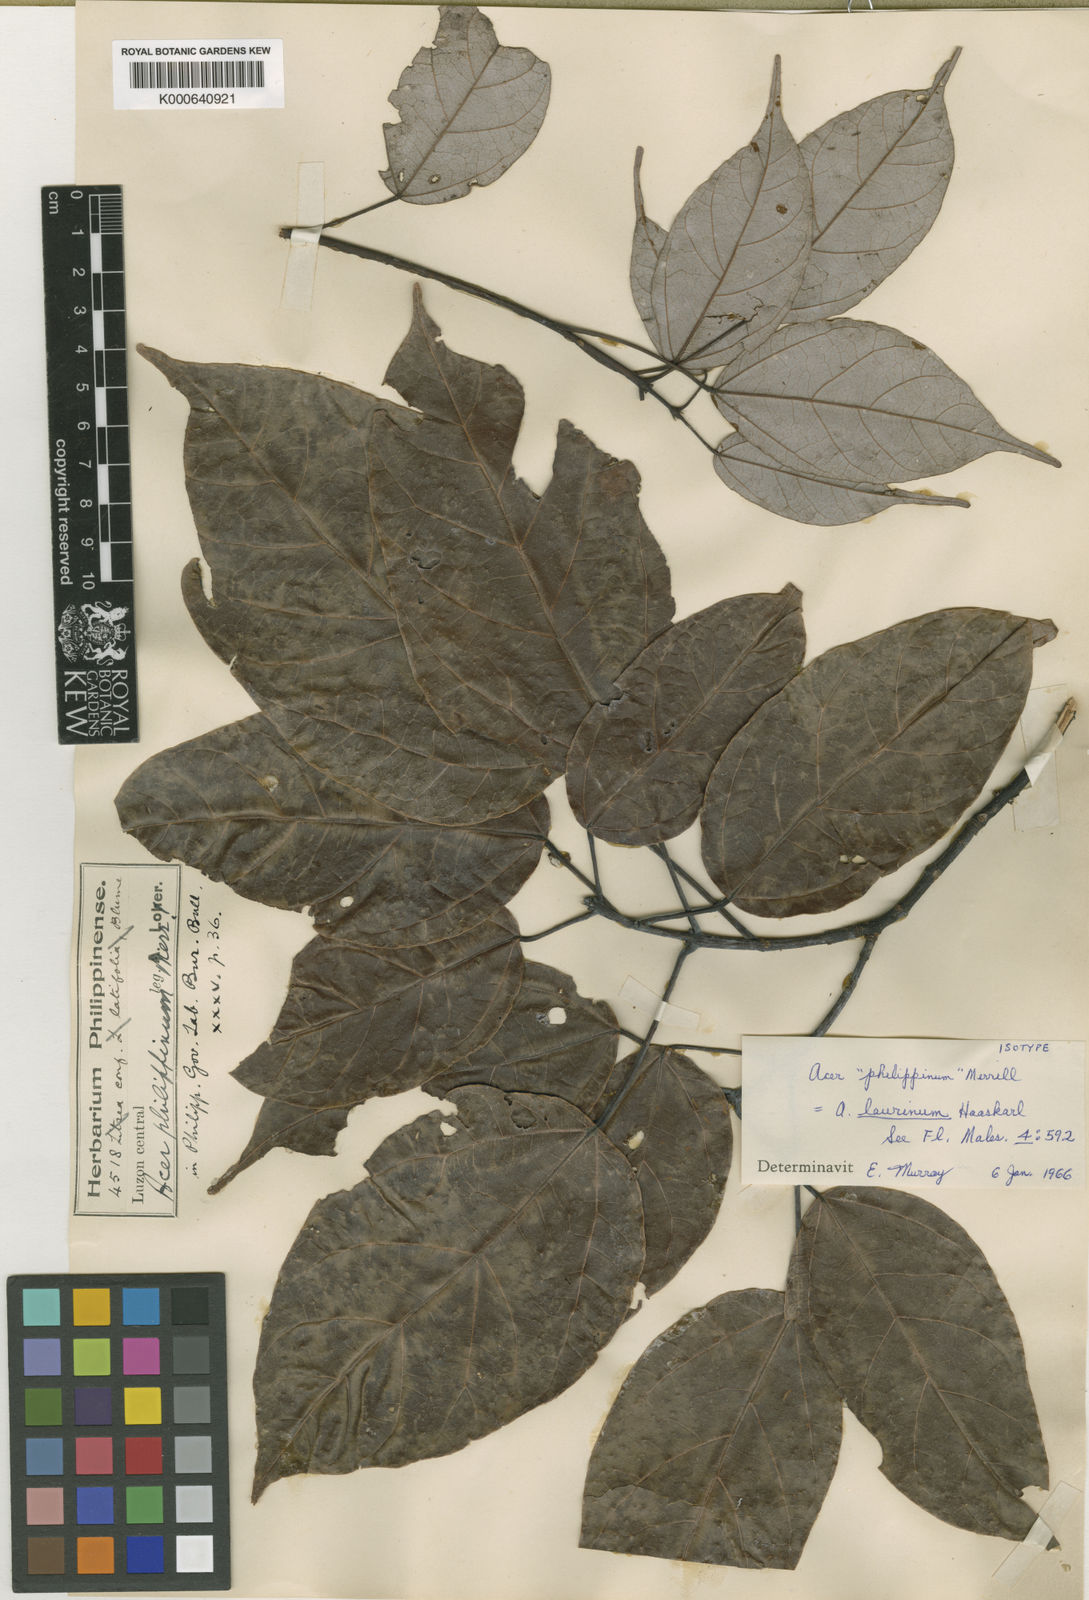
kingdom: Plantae
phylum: Tracheophyta
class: Magnoliopsida
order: Sapindales
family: Sapindaceae
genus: Acer
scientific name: Acer laurinum
